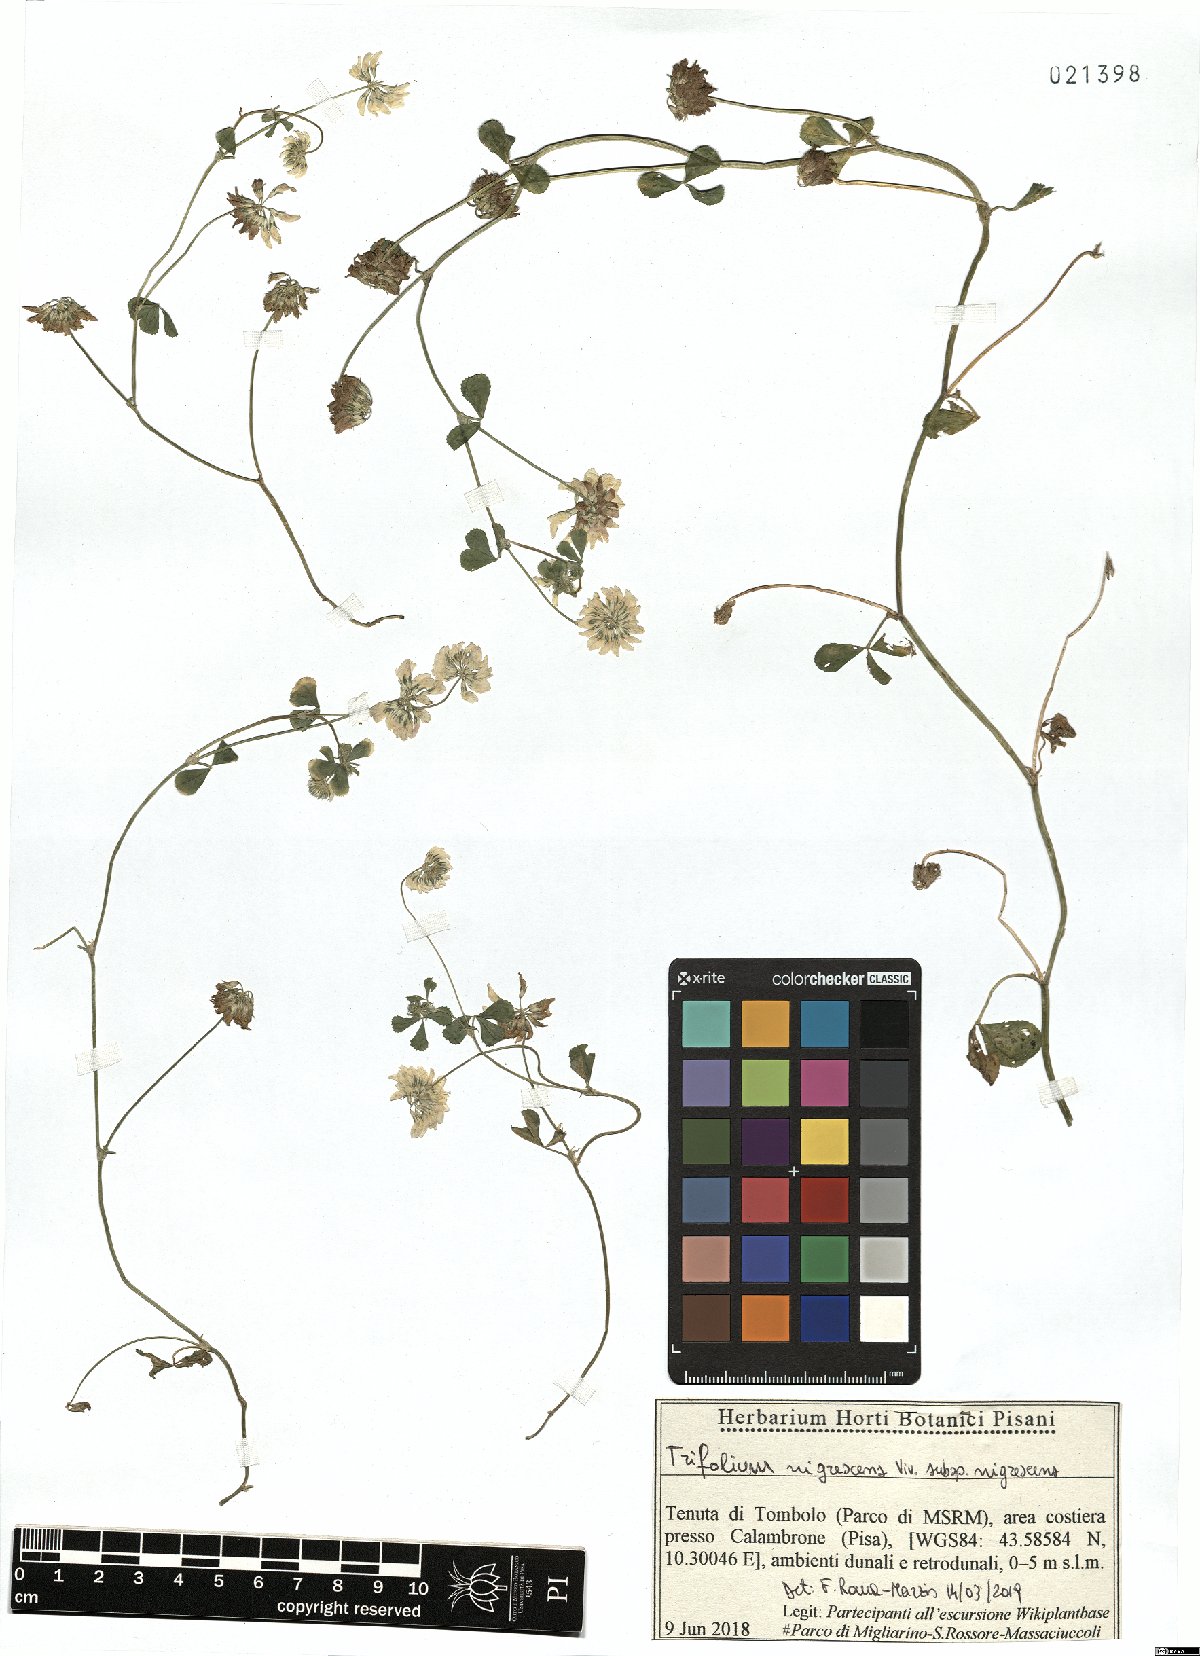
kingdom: Plantae
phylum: Tracheophyta
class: Magnoliopsida
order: Fabales
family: Fabaceae
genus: Trifolium
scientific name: Trifolium nigrescens
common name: Small white clover
